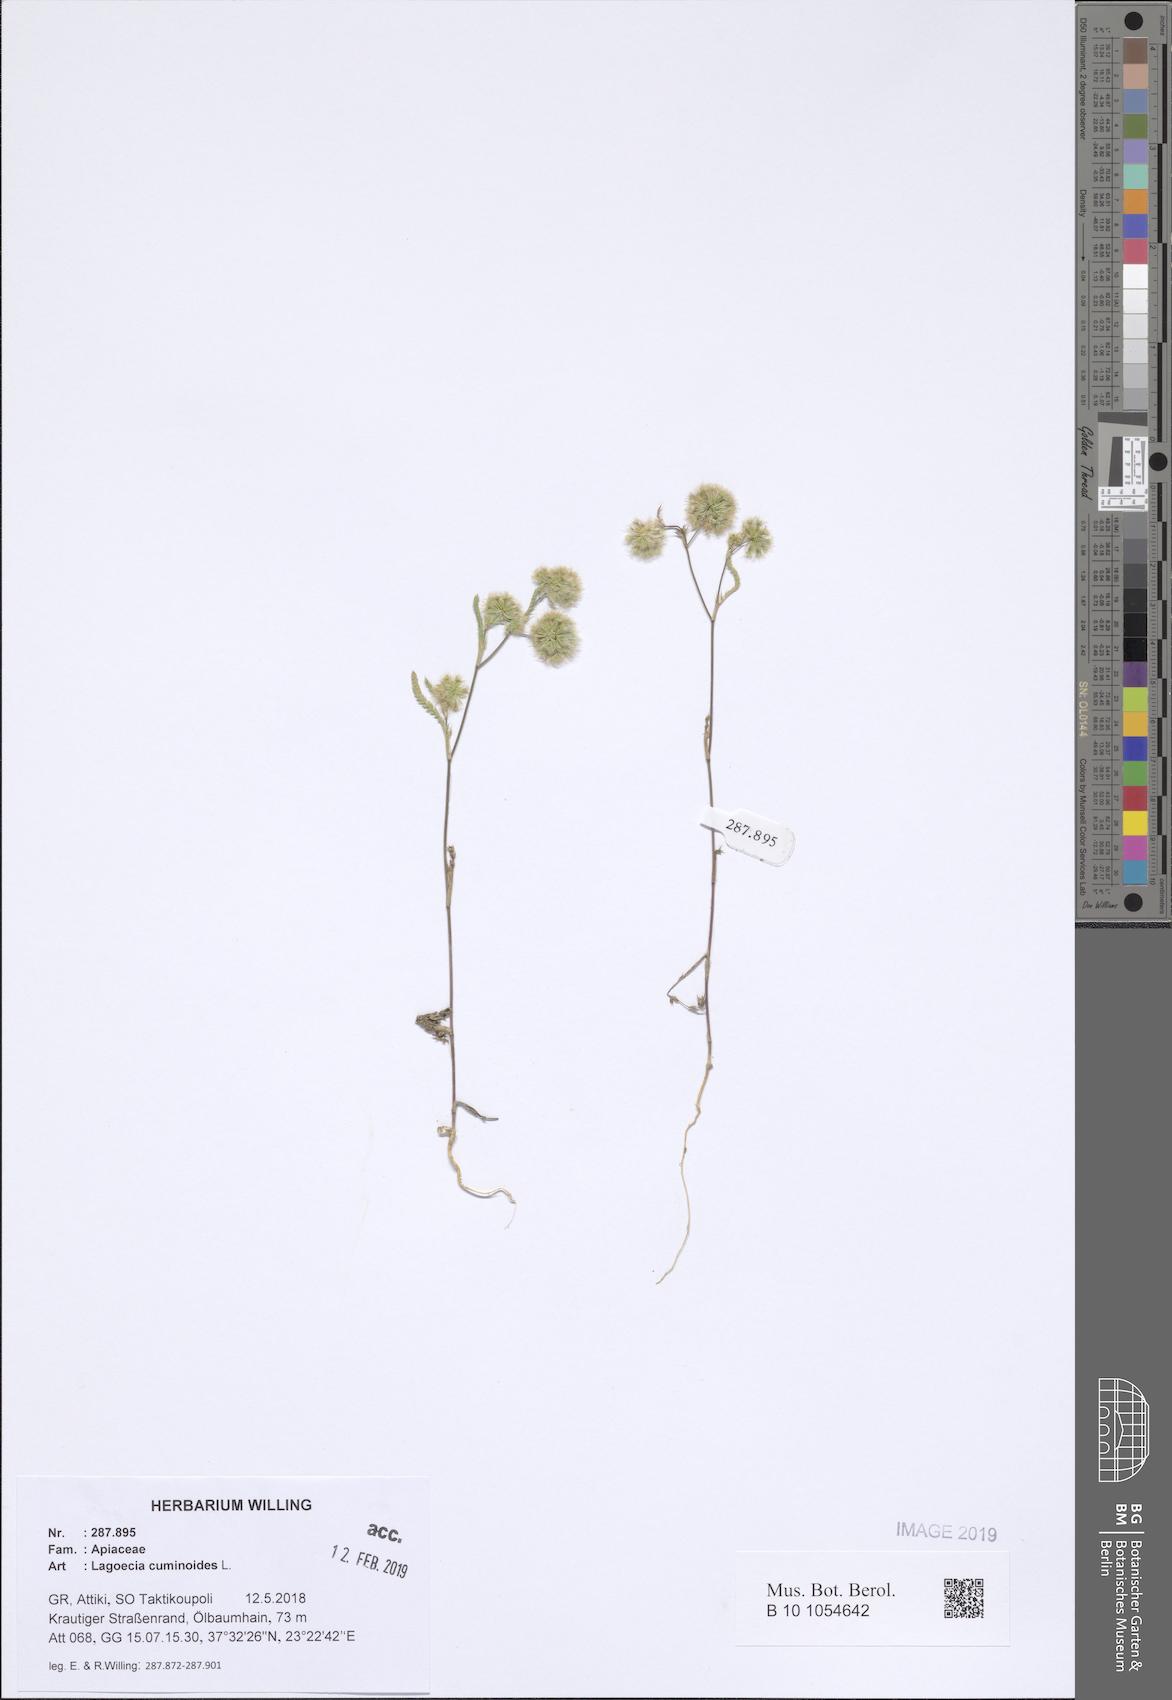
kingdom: Plantae
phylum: Tracheophyta
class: Magnoliopsida
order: Apiales
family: Apiaceae
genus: Lagoecia
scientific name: Lagoecia cuminoides
